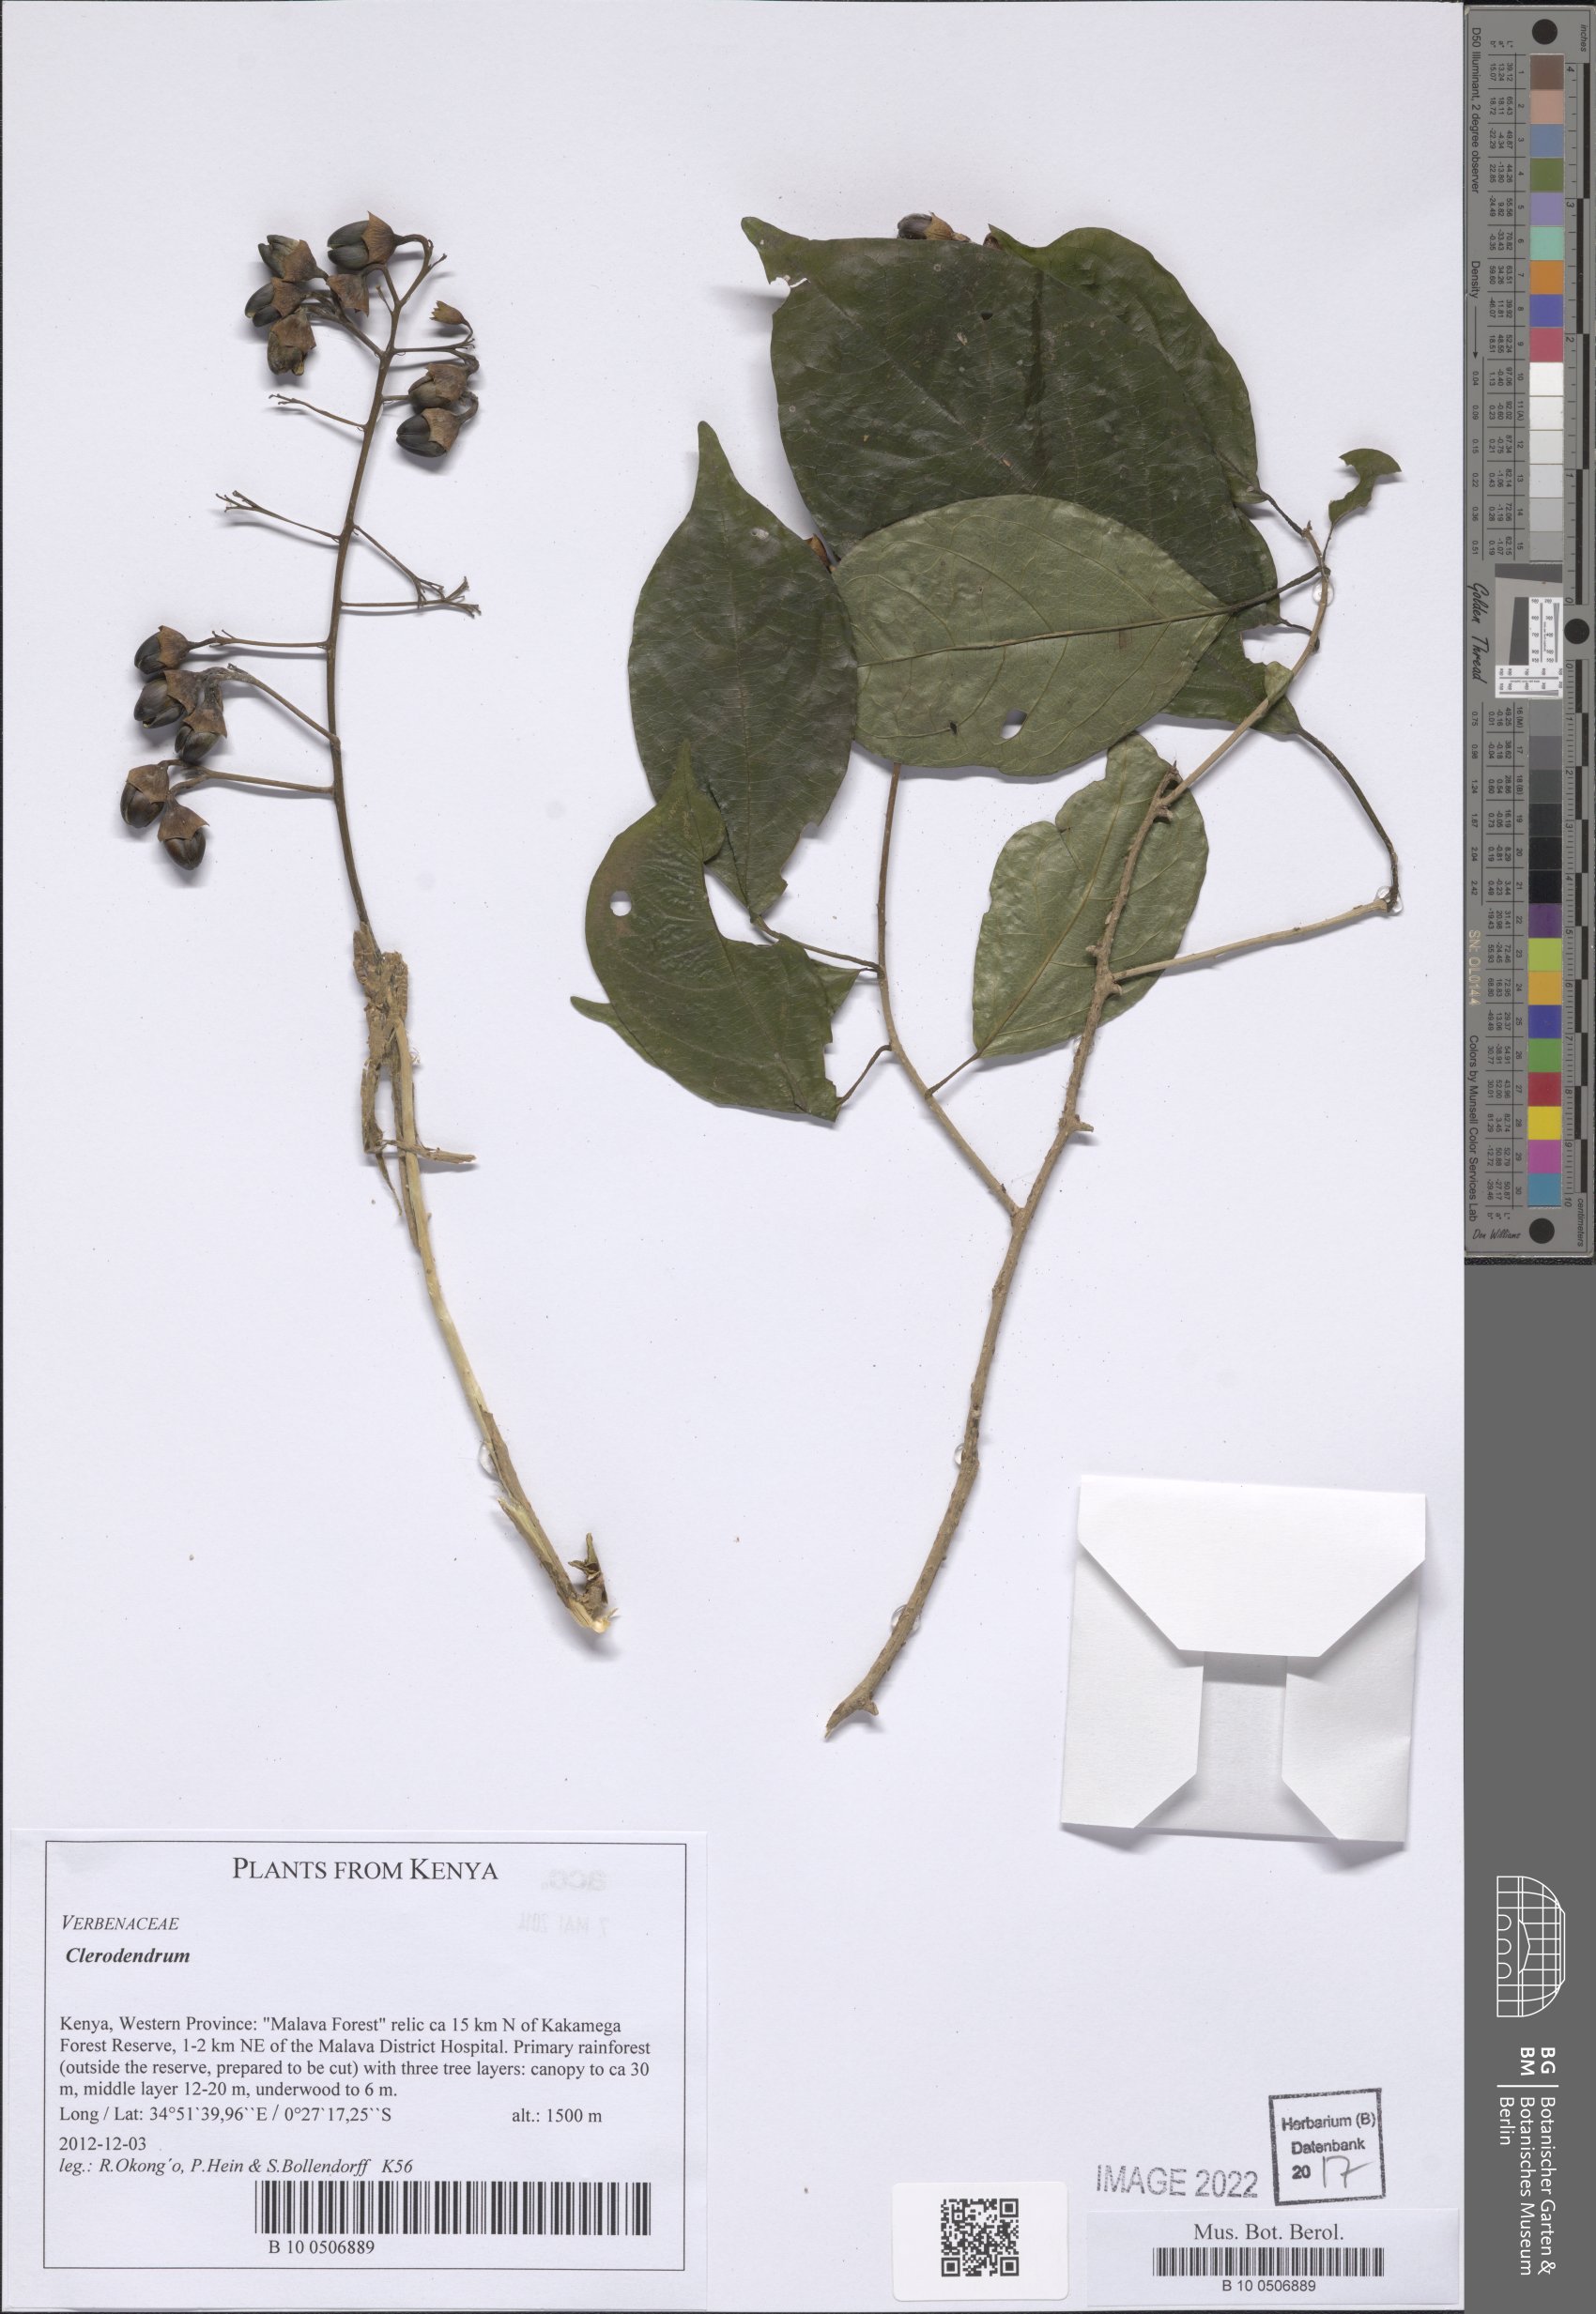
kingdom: Plantae
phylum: Tracheophyta
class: Magnoliopsida
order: Lamiales
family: Lamiaceae
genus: Clerodendrum
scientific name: Clerodendrum
